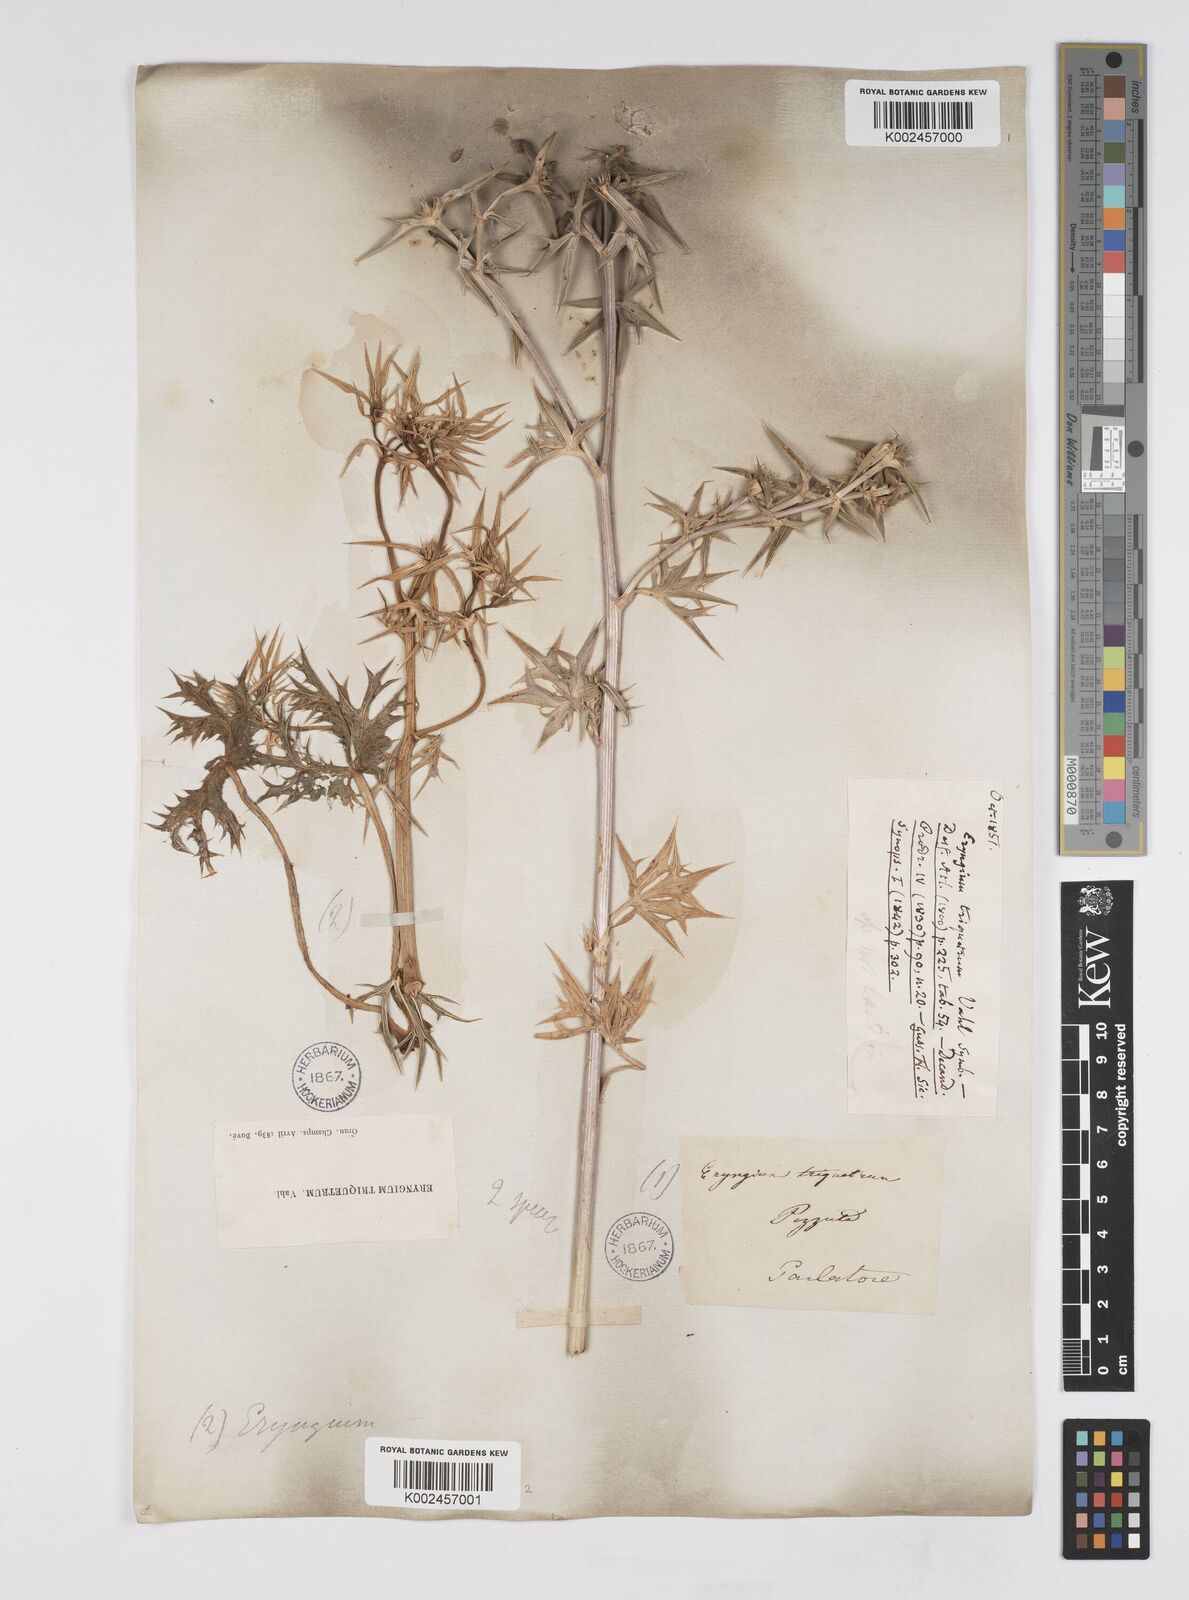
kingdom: Plantae
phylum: Tracheophyta
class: Magnoliopsida
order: Apiales
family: Apiaceae
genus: Eryngium
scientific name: Eryngium triquetrum
